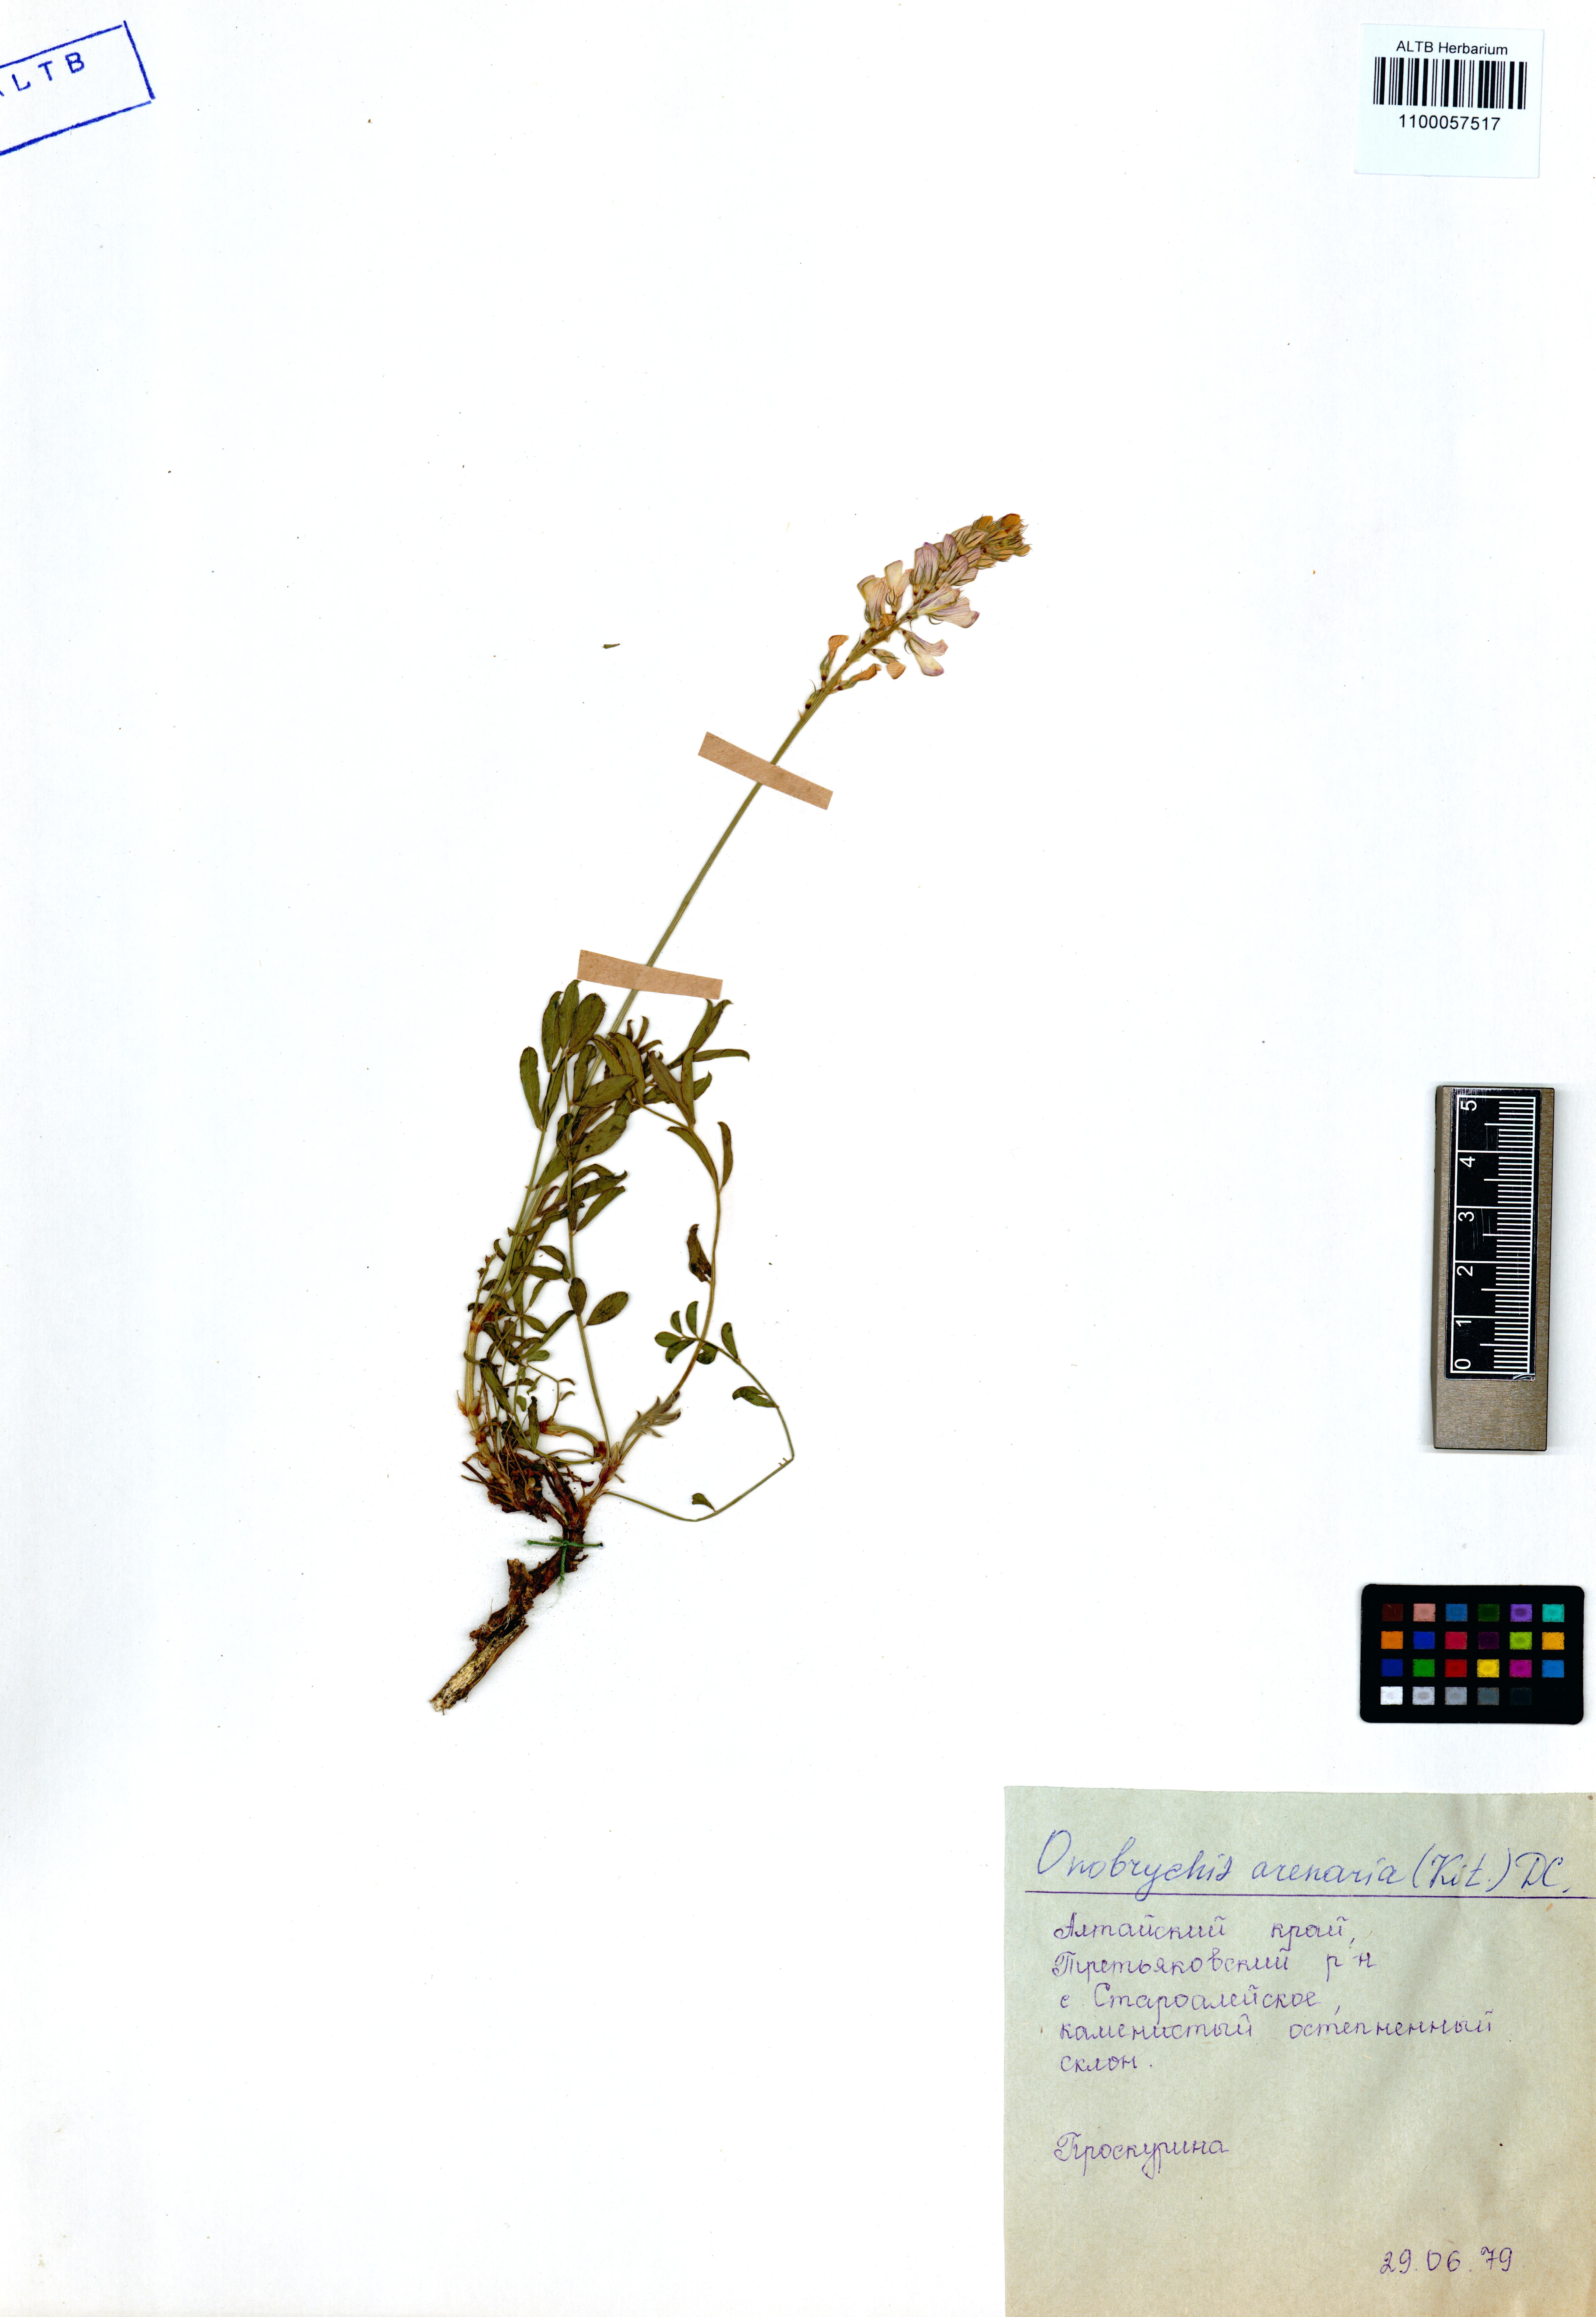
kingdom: Plantae
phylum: Tracheophyta
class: Magnoliopsida
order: Fabales
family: Fabaceae
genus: Onobrychis
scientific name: Onobrychis arenaria
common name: Sand esparcet
